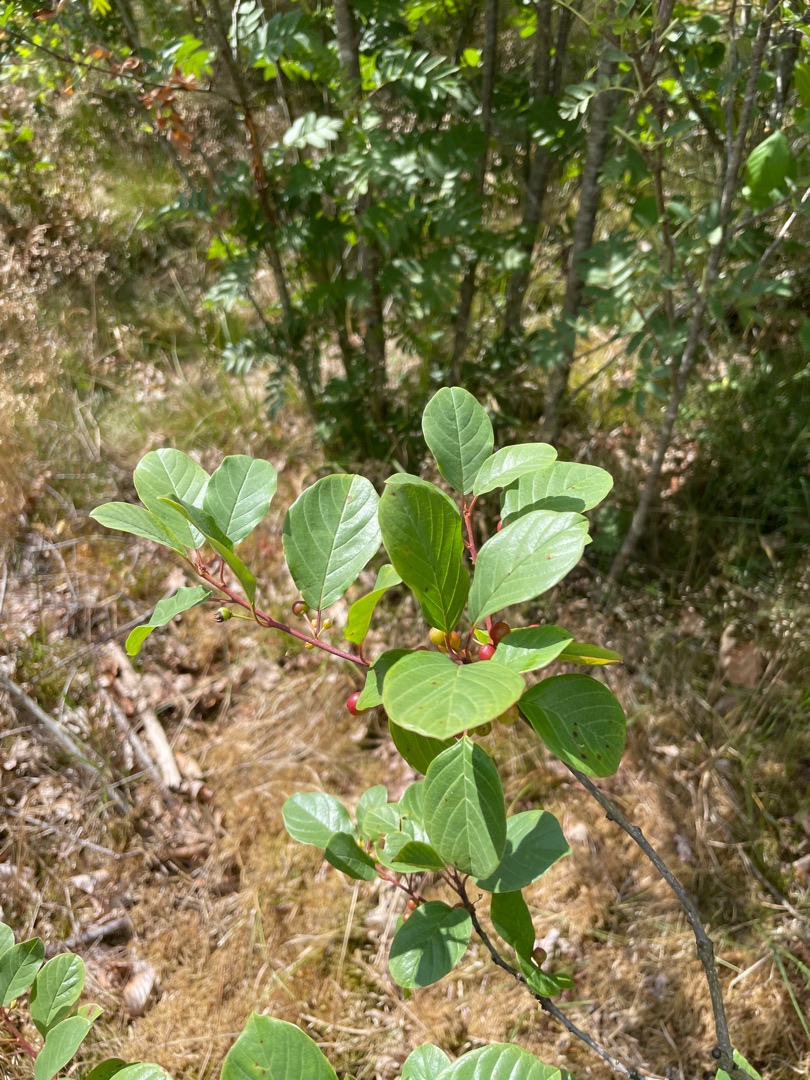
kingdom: Plantae
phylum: Tracheophyta
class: Magnoliopsida
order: Rosales
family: Rhamnaceae
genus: Frangula
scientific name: Frangula alnus
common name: Tørst
